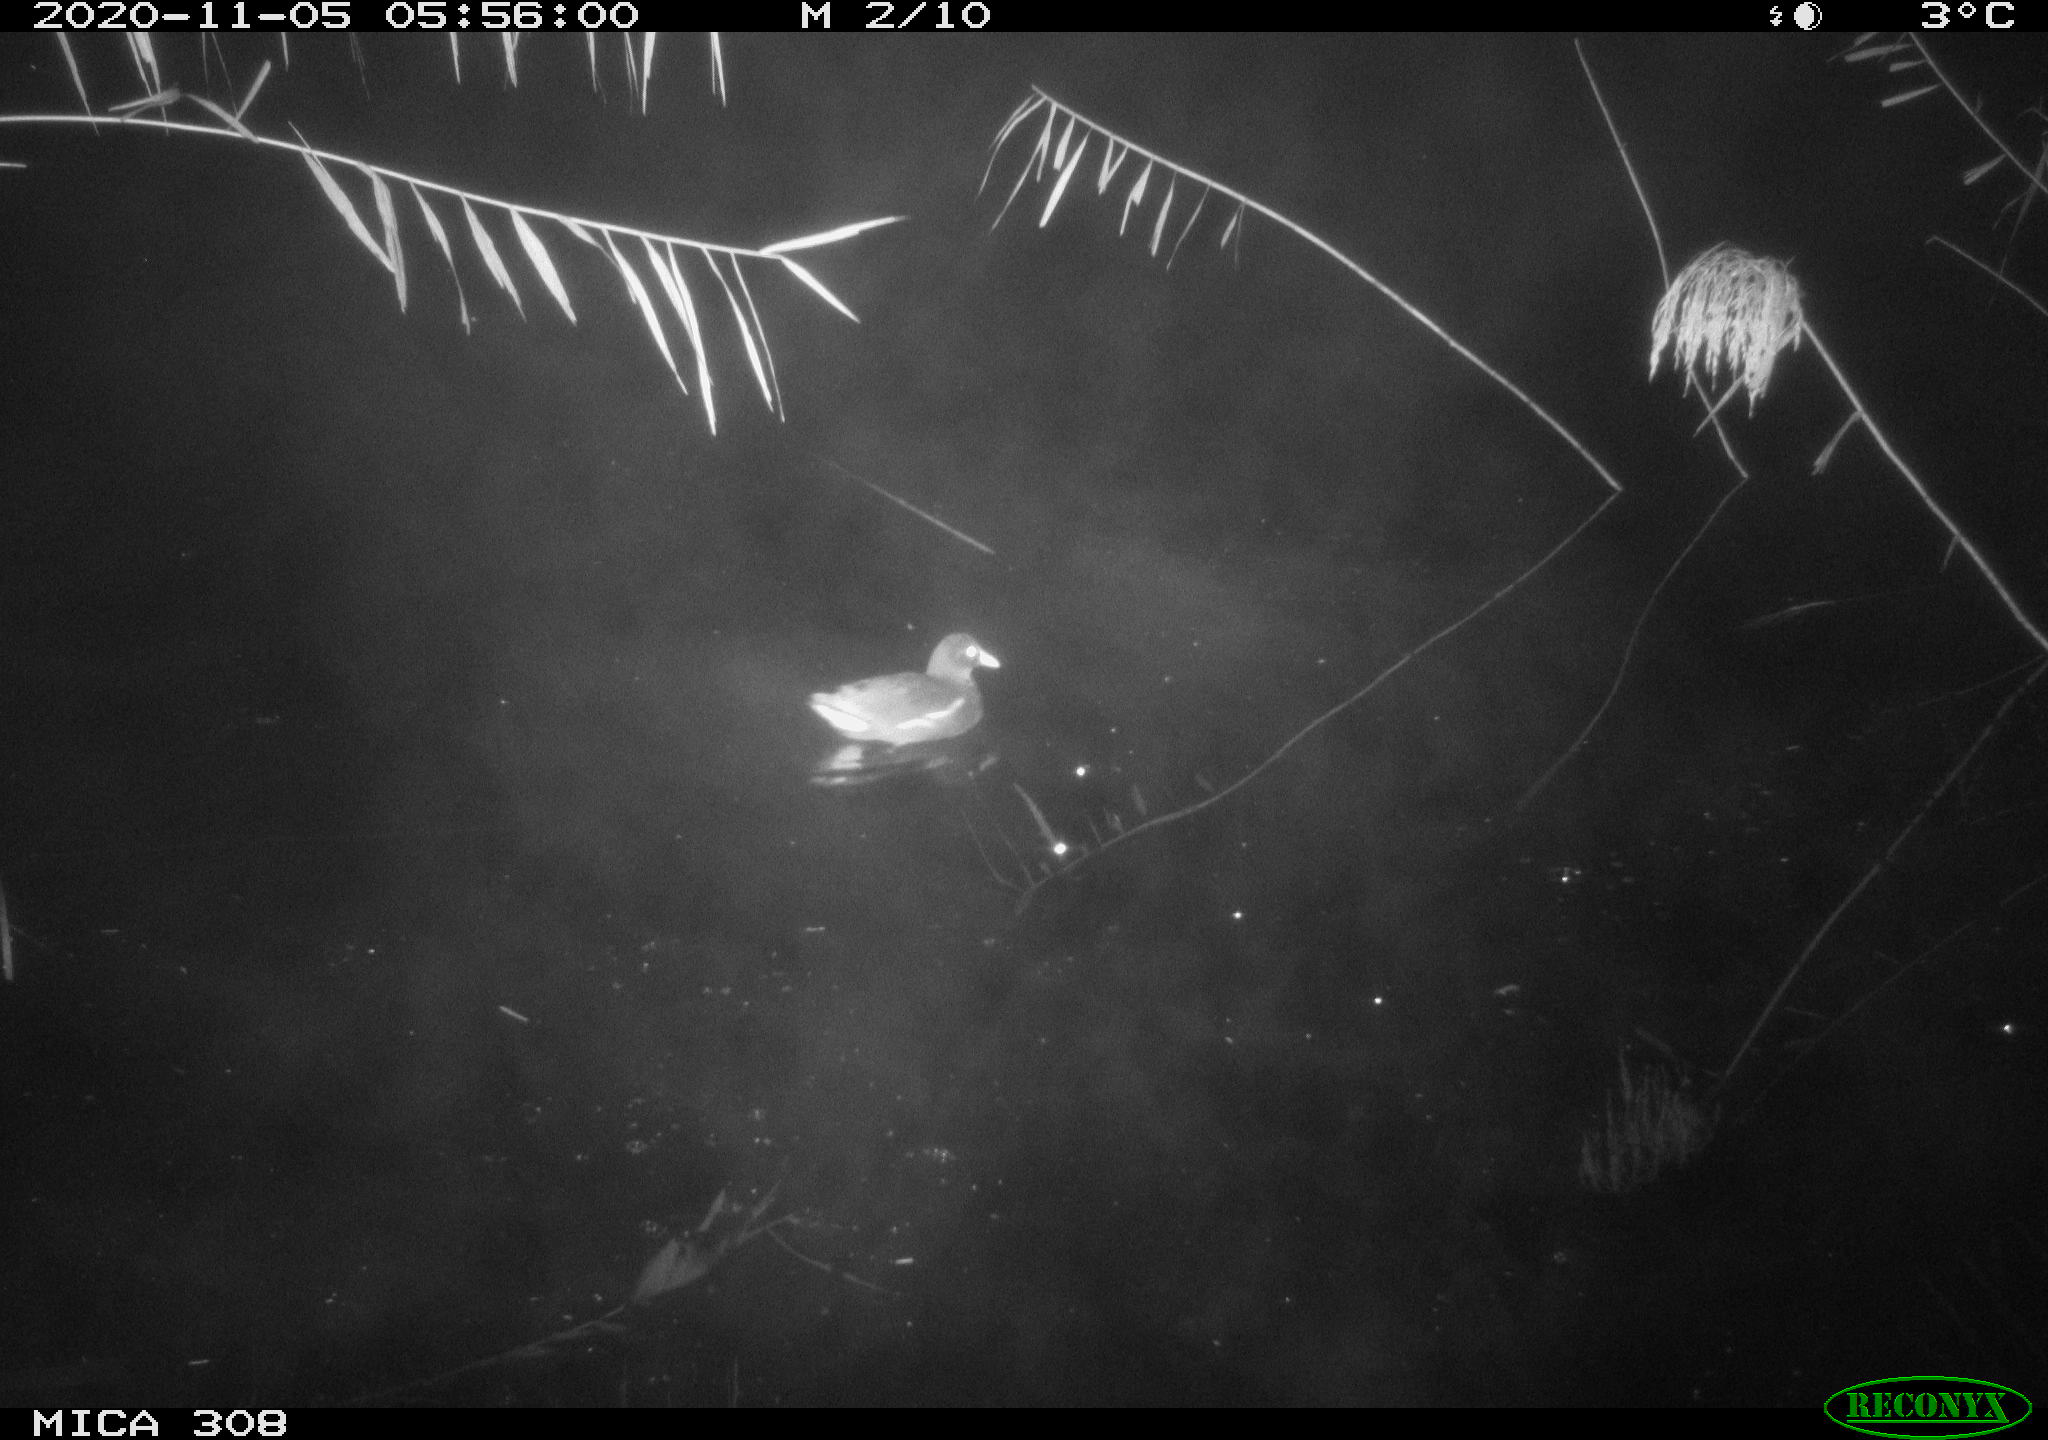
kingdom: Animalia
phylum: Chordata
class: Aves
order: Anseriformes
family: Anatidae
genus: Anas
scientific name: Anas platyrhynchos
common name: Mallard
